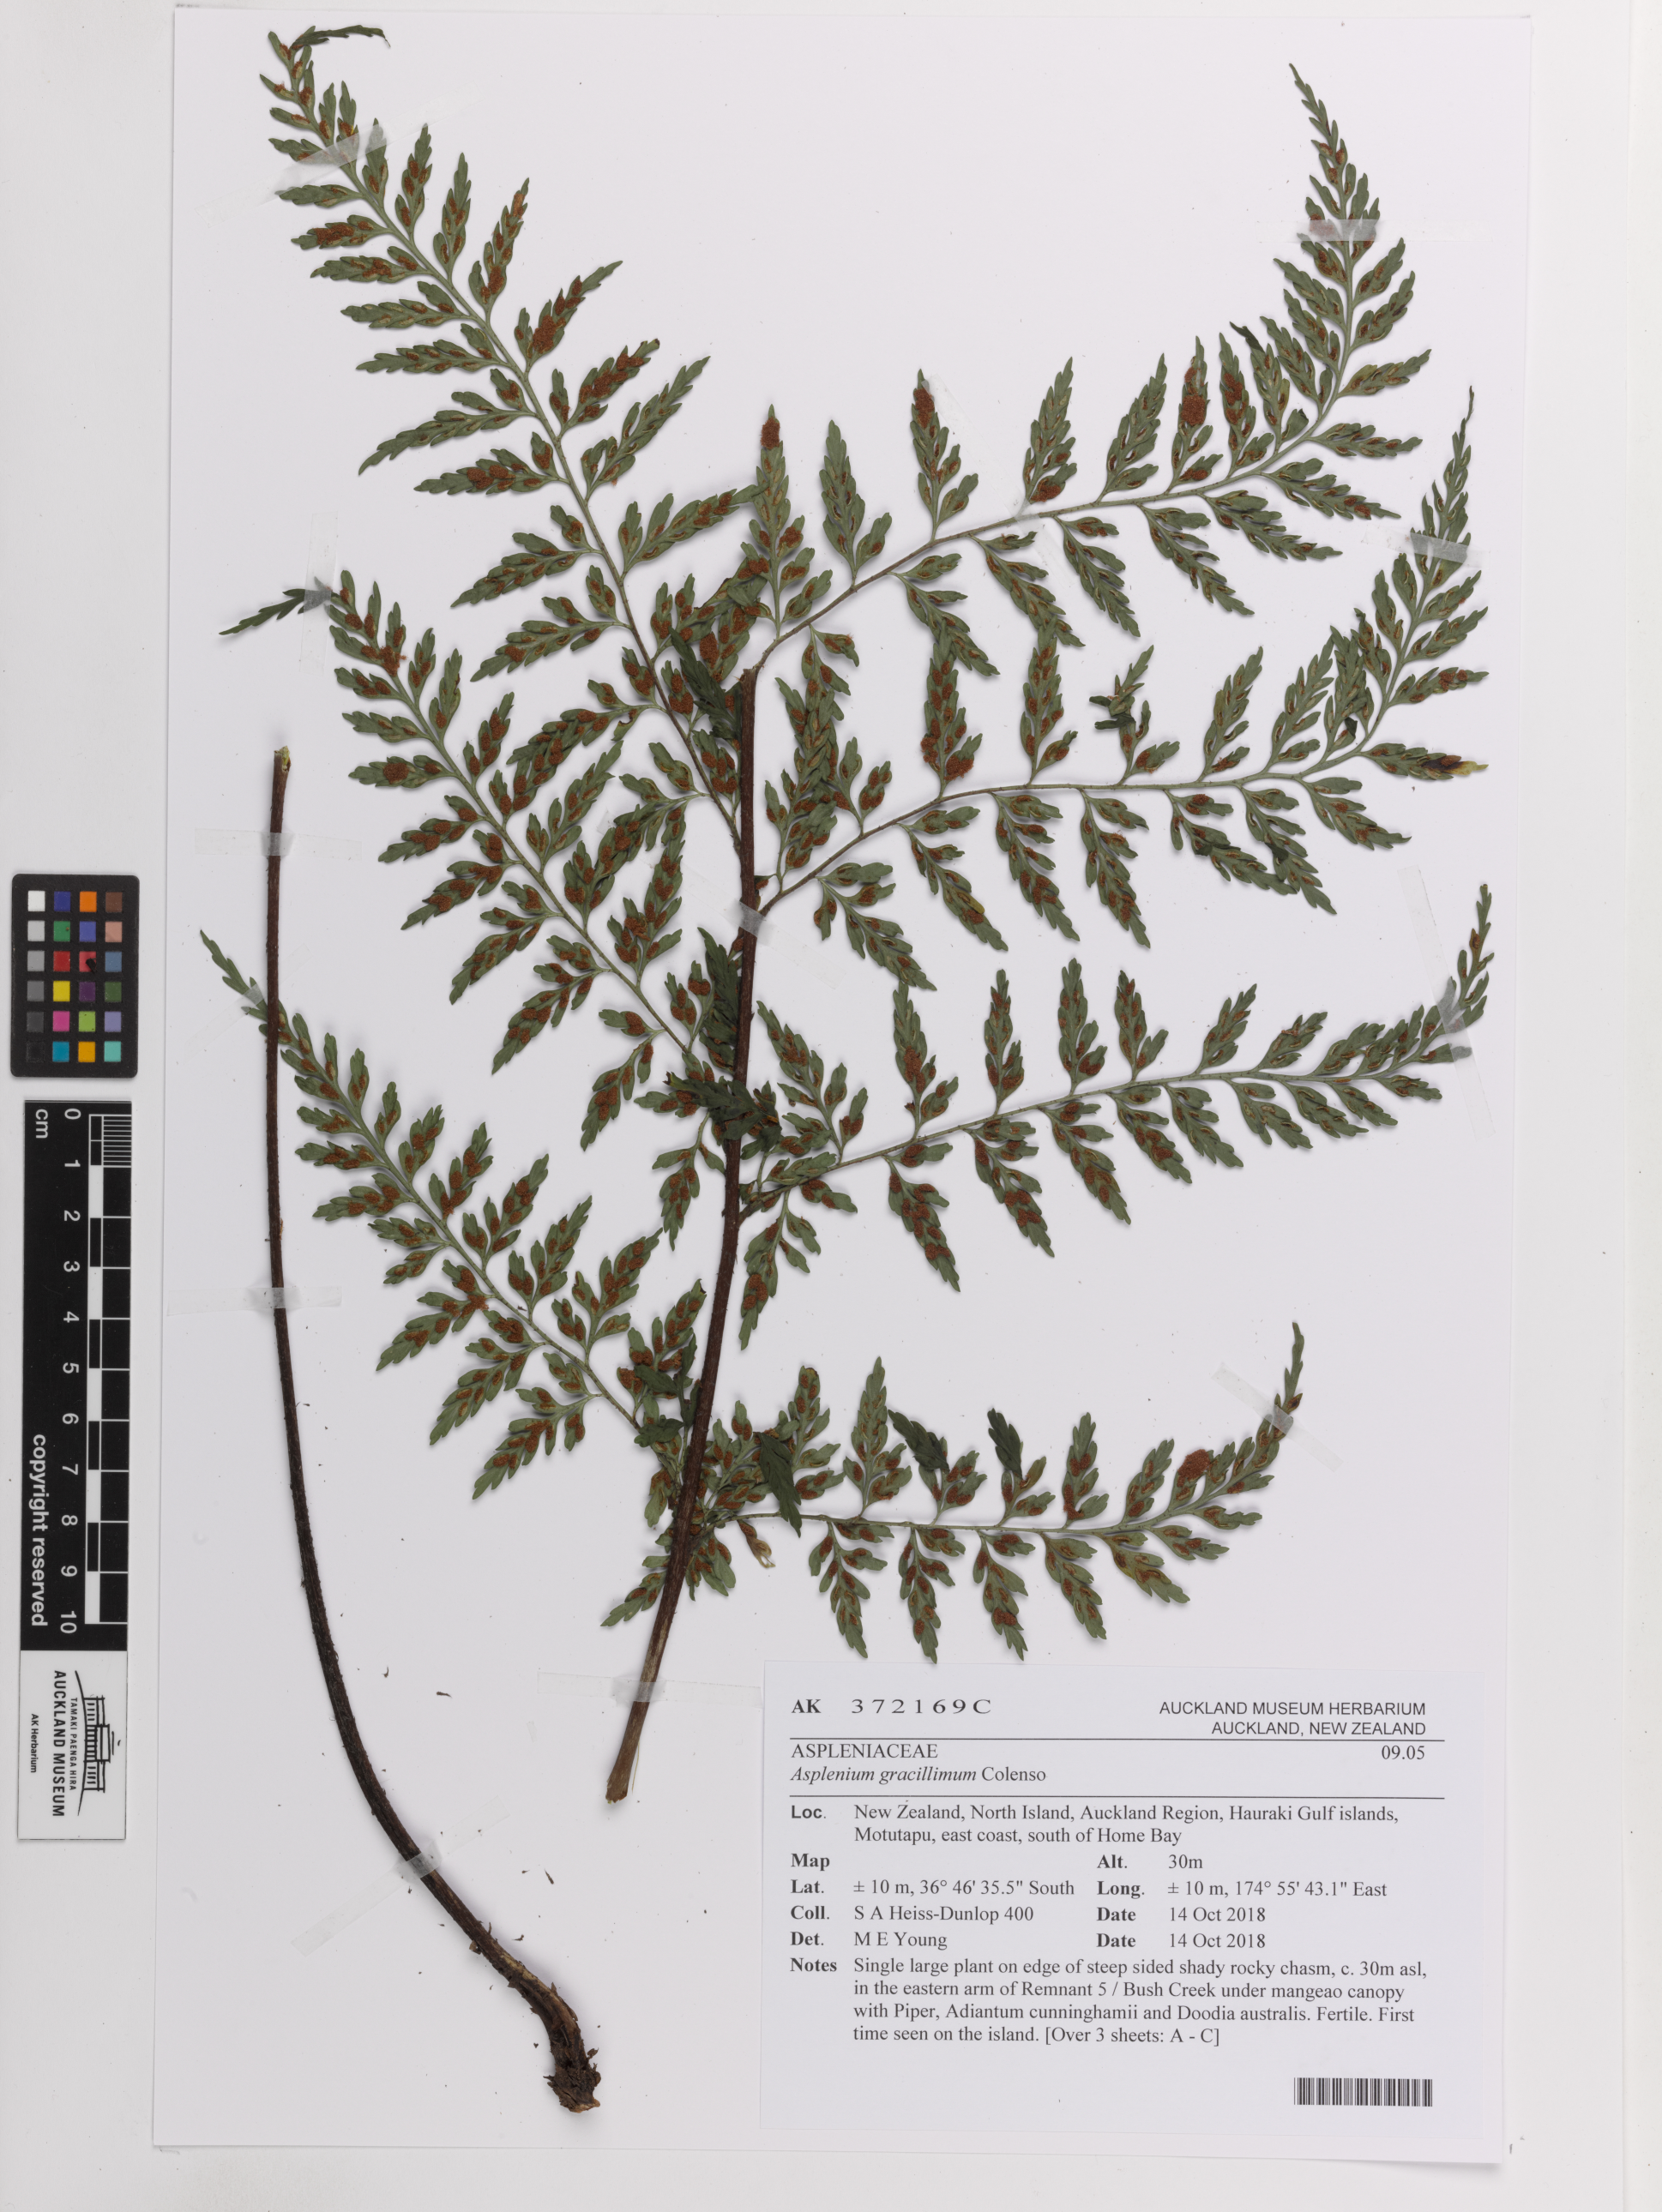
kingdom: Plantae
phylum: Tracheophyta
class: Polypodiopsida
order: Polypodiales
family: Aspleniaceae
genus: Asplenium
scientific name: Asplenium bulbiferum
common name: Mother fern
